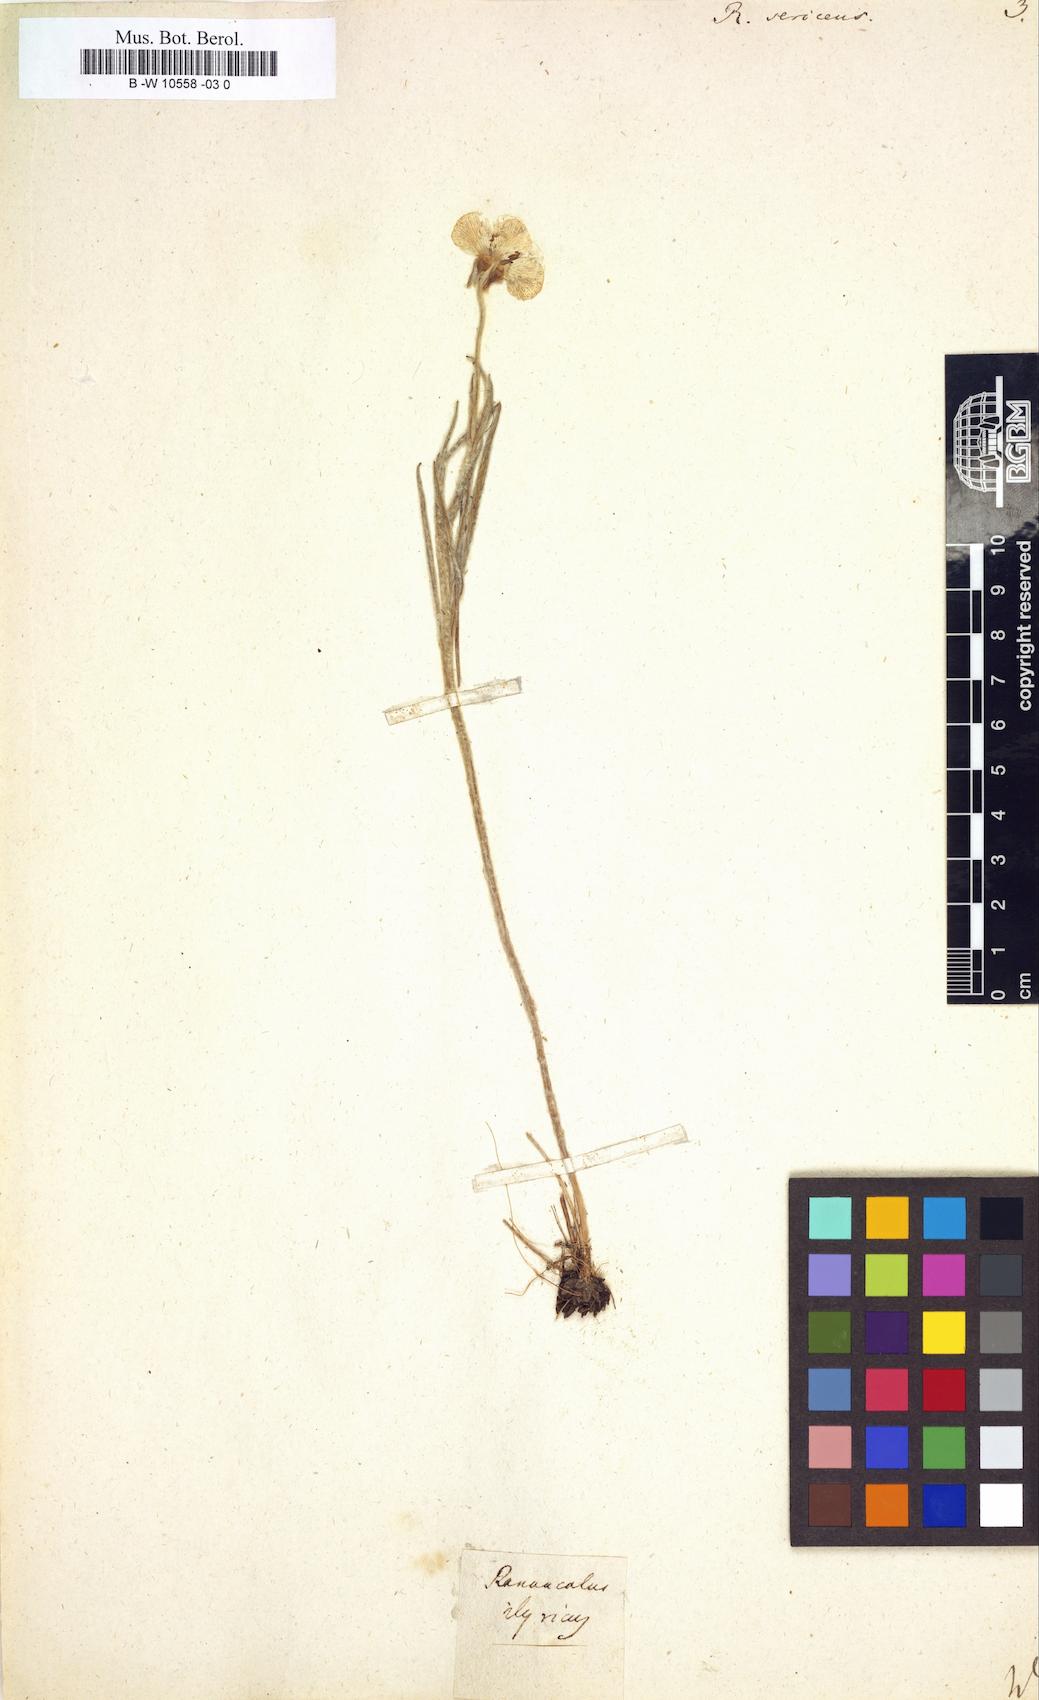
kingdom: Plantae
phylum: Tracheophyta
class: Magnoliopsida
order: Ranunculales
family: Ranunculaceae
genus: Ranunculus
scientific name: Ranunculus sericeus
